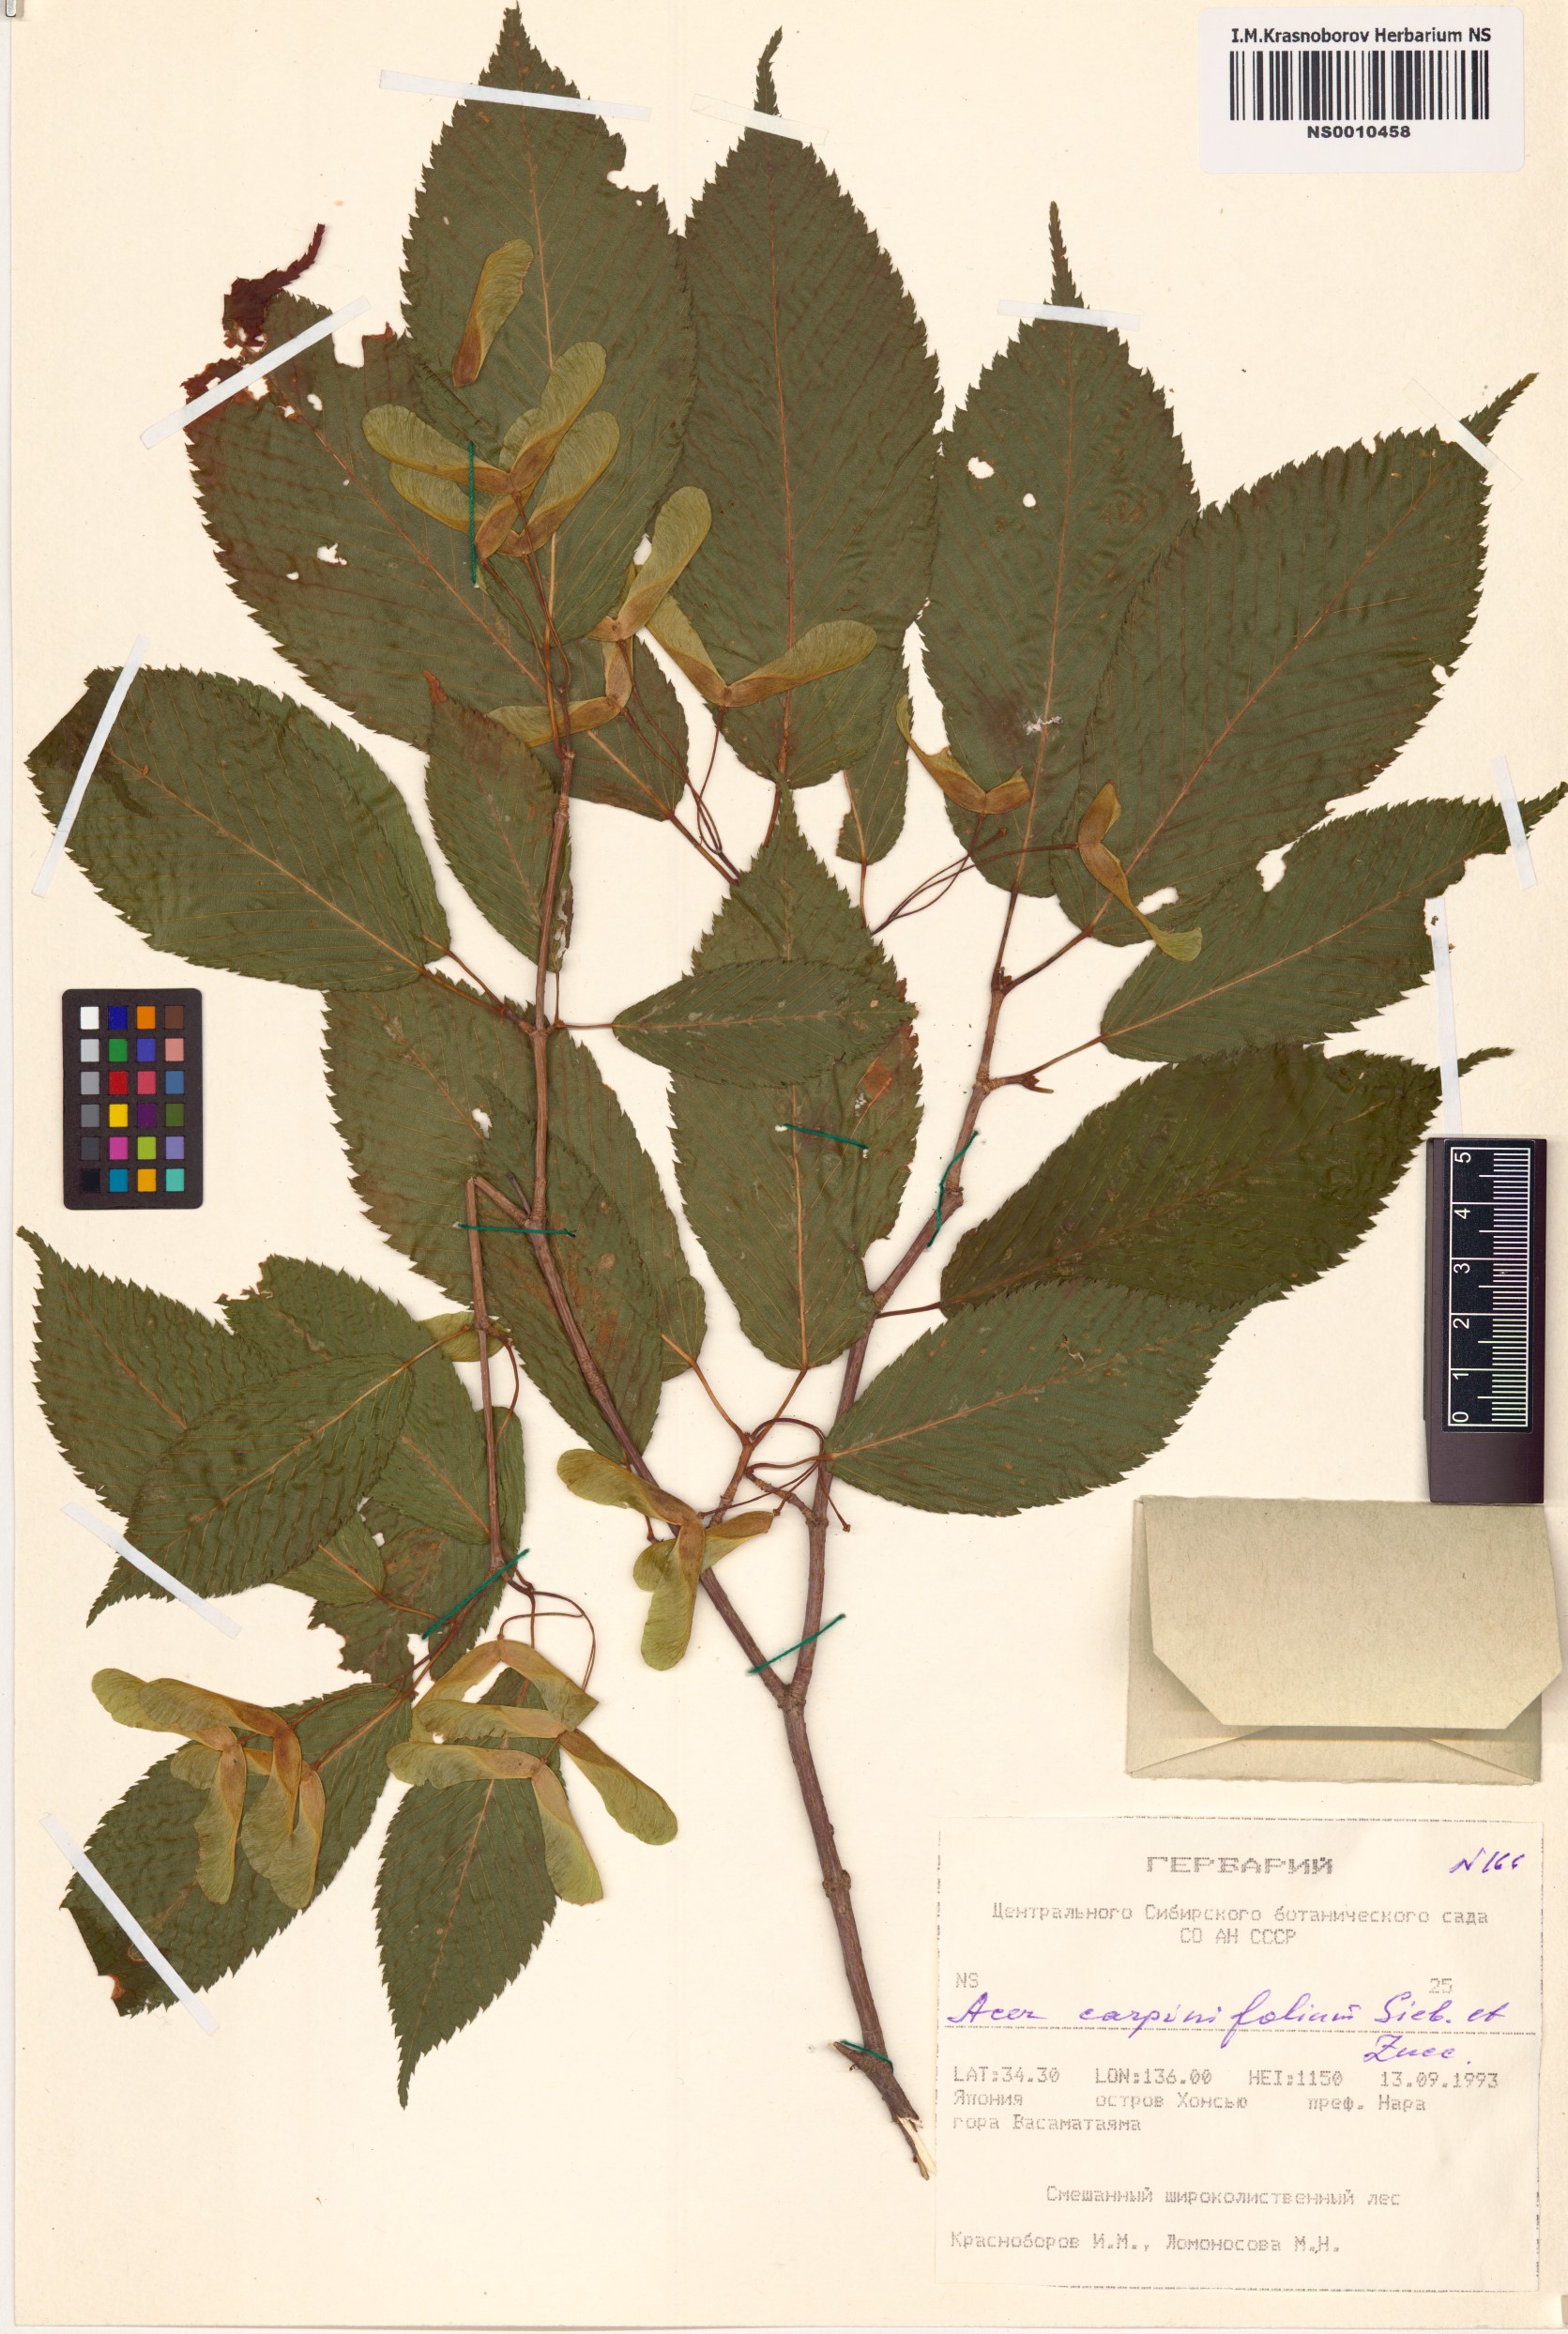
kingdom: Plantae
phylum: Tracheophyta
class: Magnoliopsida
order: Sapindales
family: Sapindaceae
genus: Acer
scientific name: Acer carpinifolium
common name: Hornbeam maple
